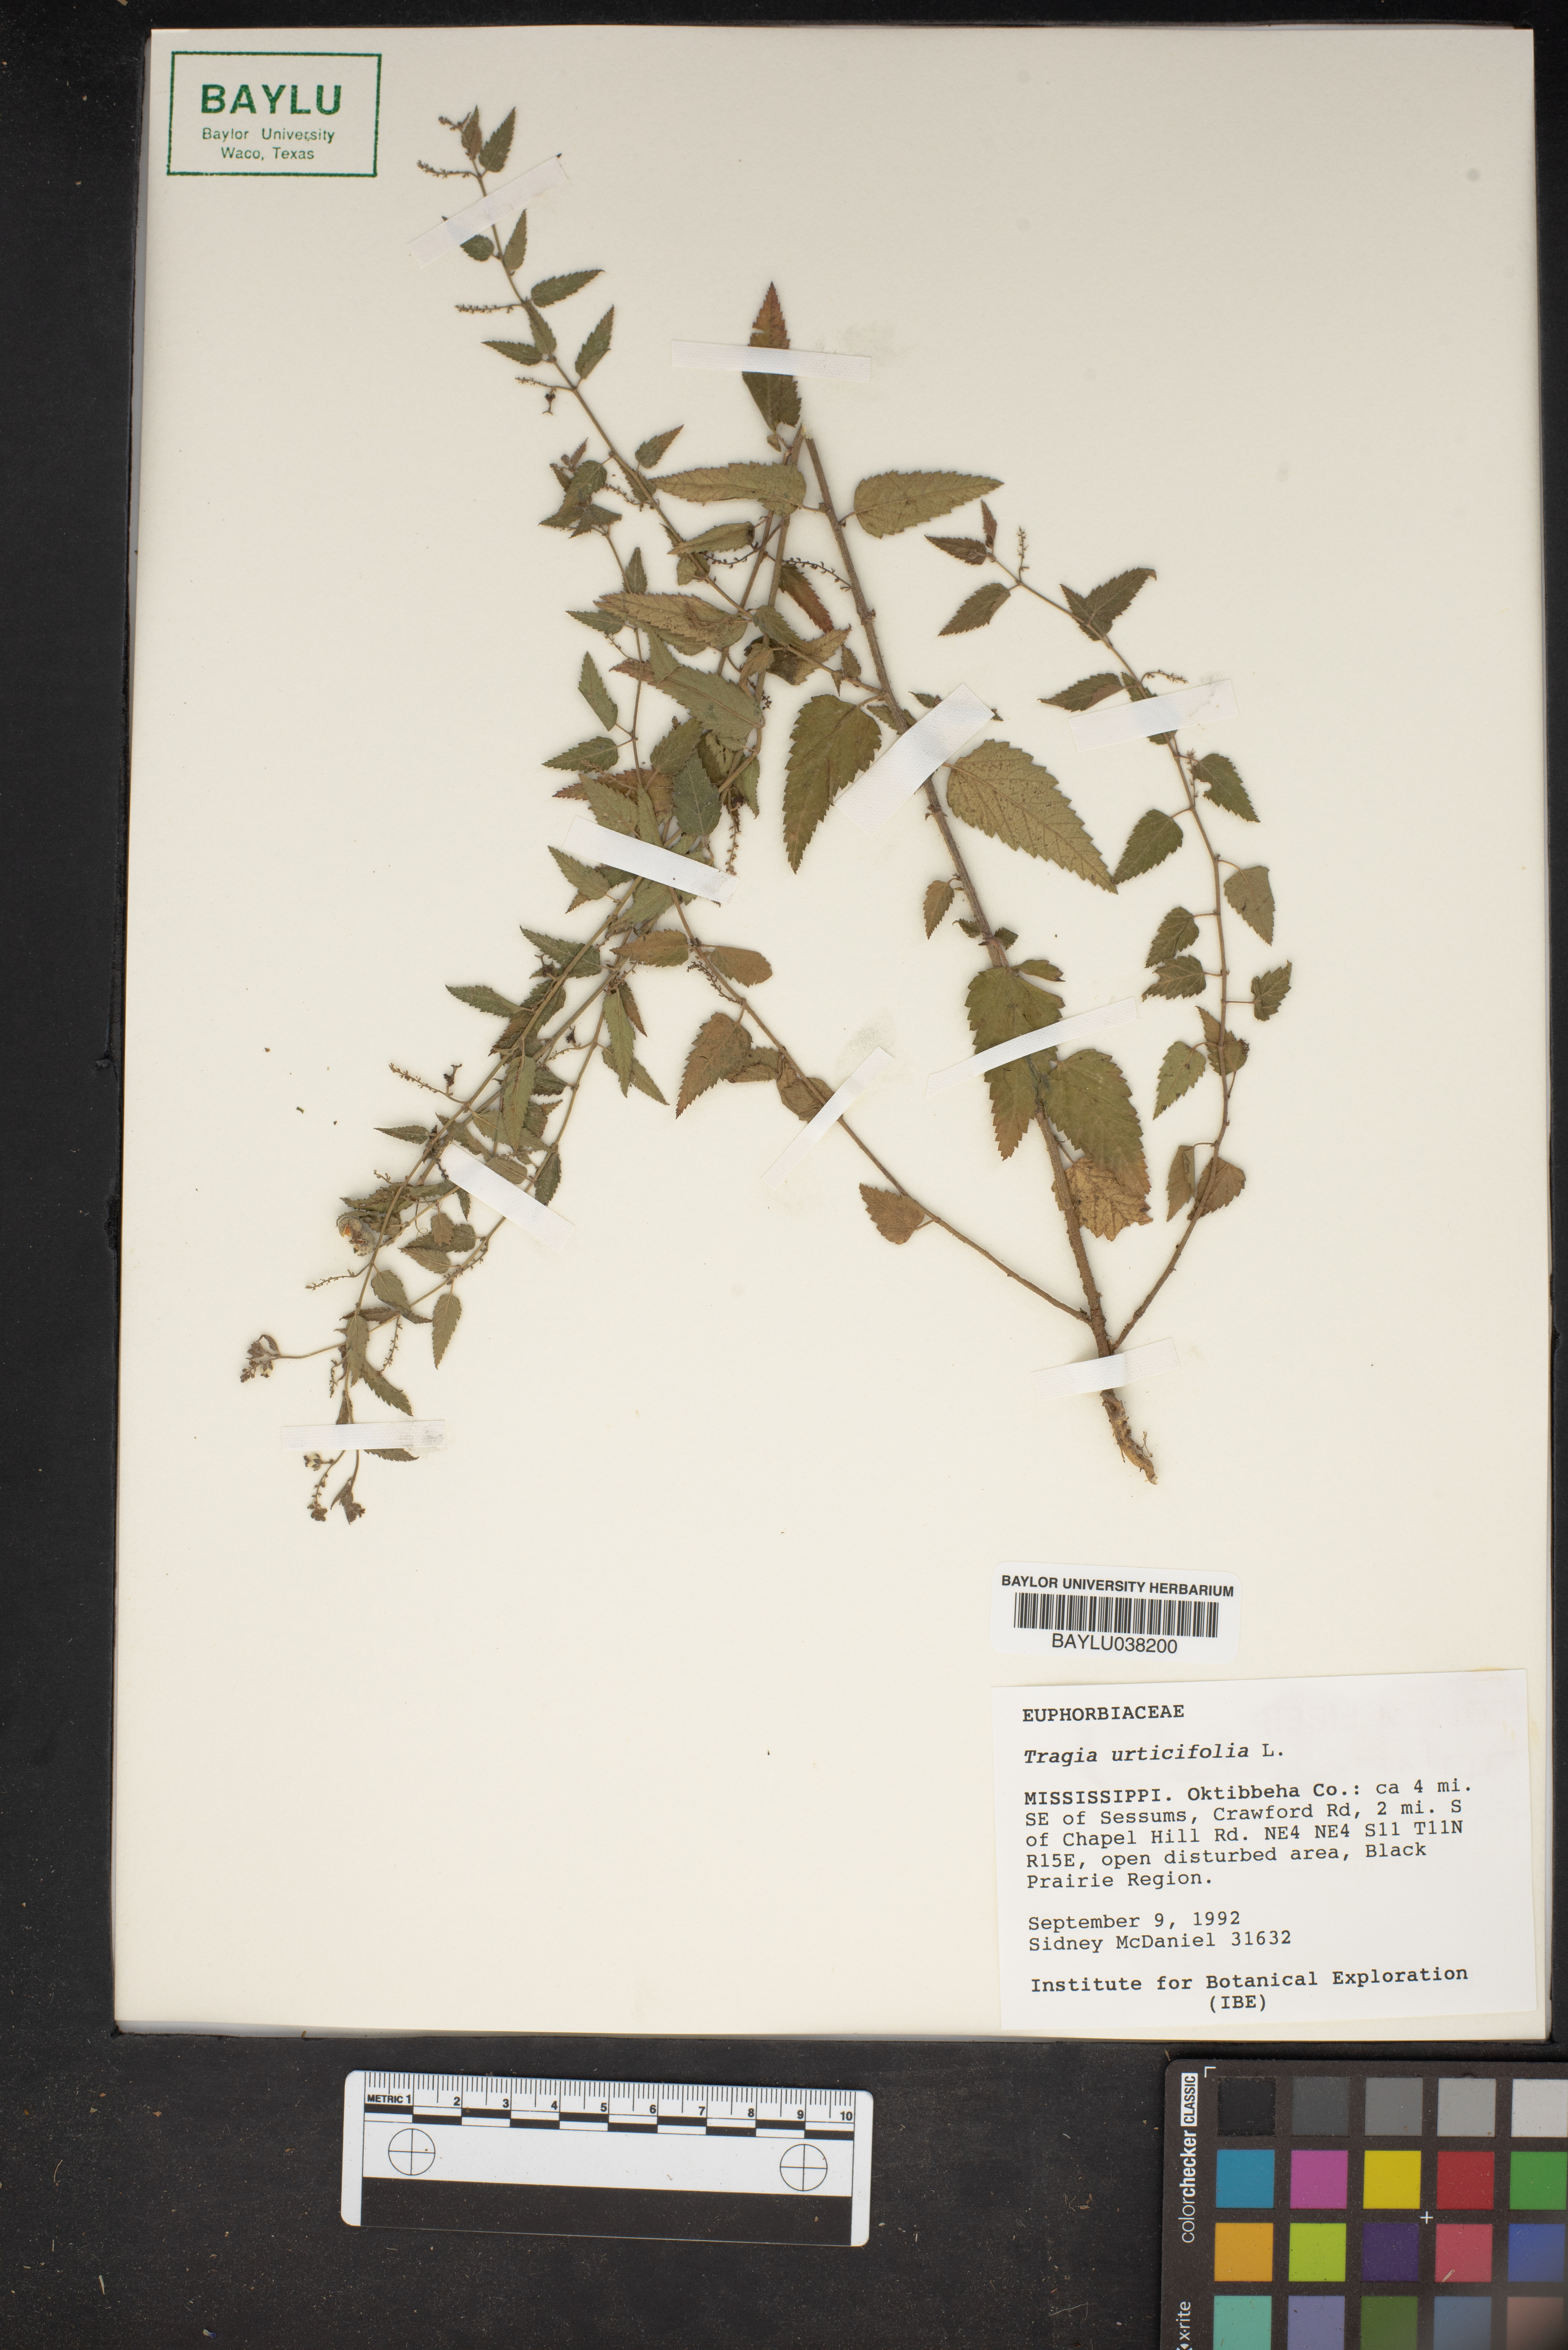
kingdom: Plantae
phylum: Tracheophyta
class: Magnoliopsida
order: Malpighiales
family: Euphorbiaceae
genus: Tragia
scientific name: Tragia urticifolia
